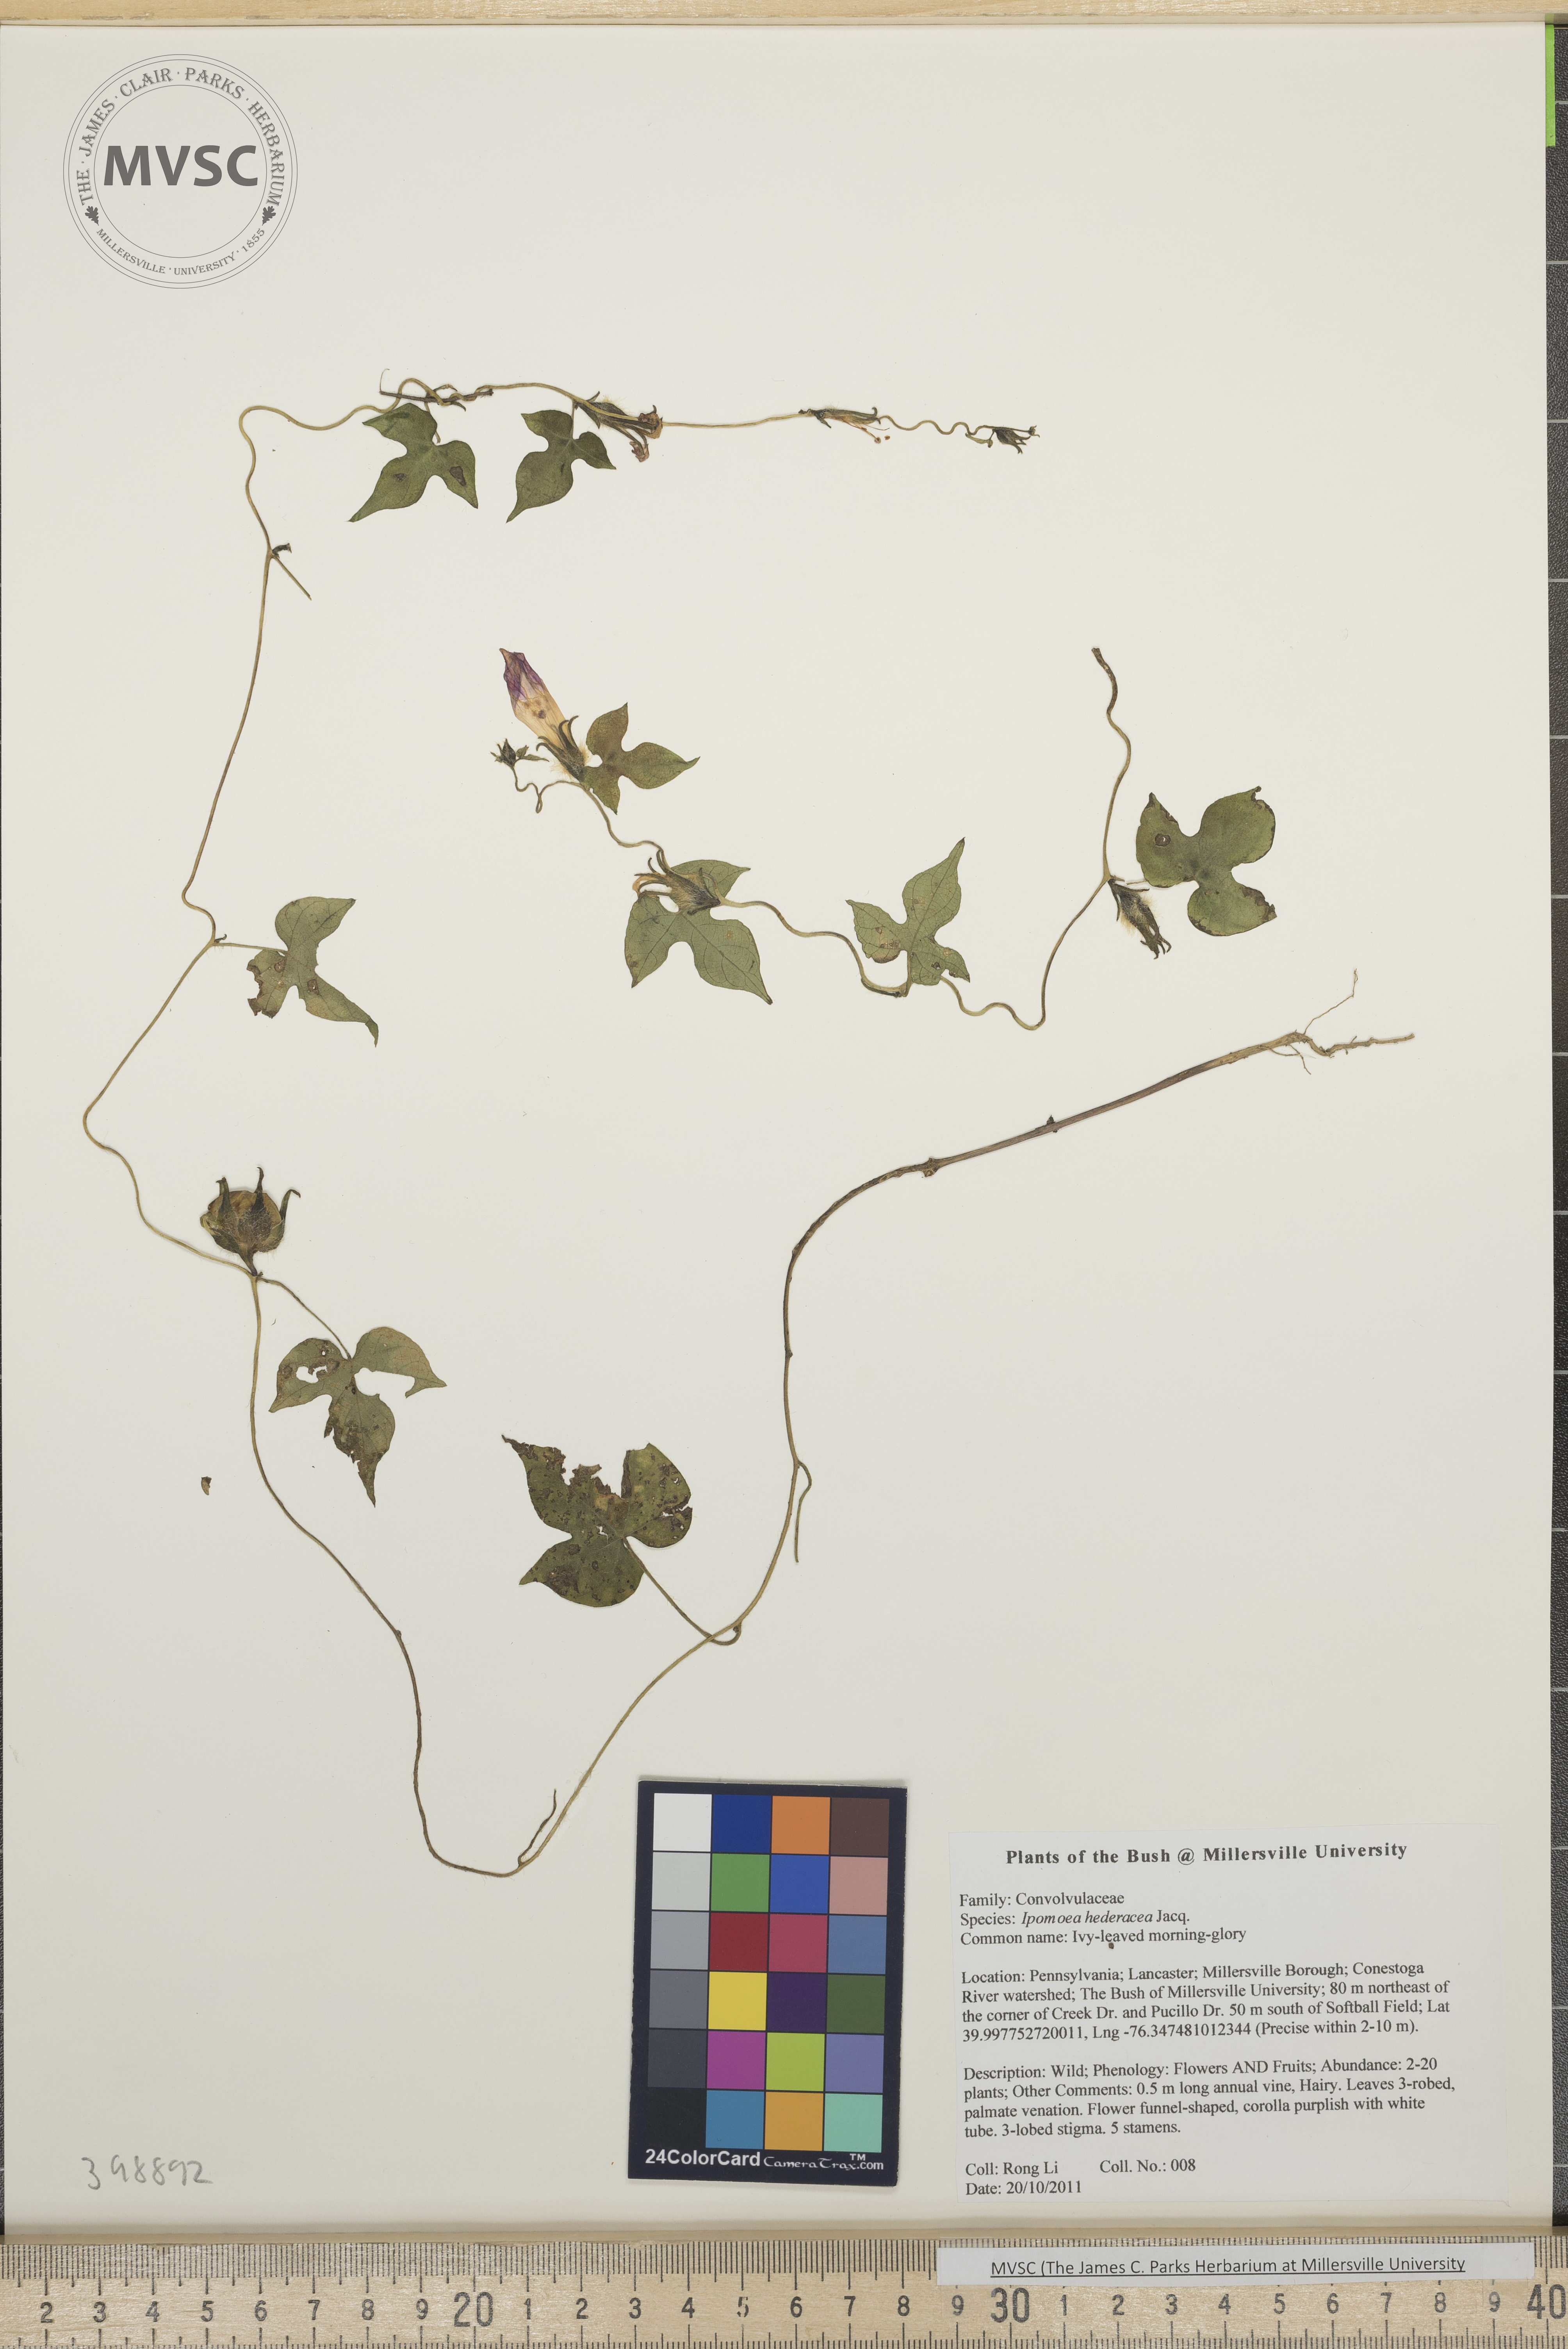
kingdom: Plantae
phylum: Tracheophyta
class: Magnoliopsida
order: Solanales
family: Convolvulaceae
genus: Ipomoea
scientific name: Ipomoea hederacea
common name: Ivy-leaved morning-glory
